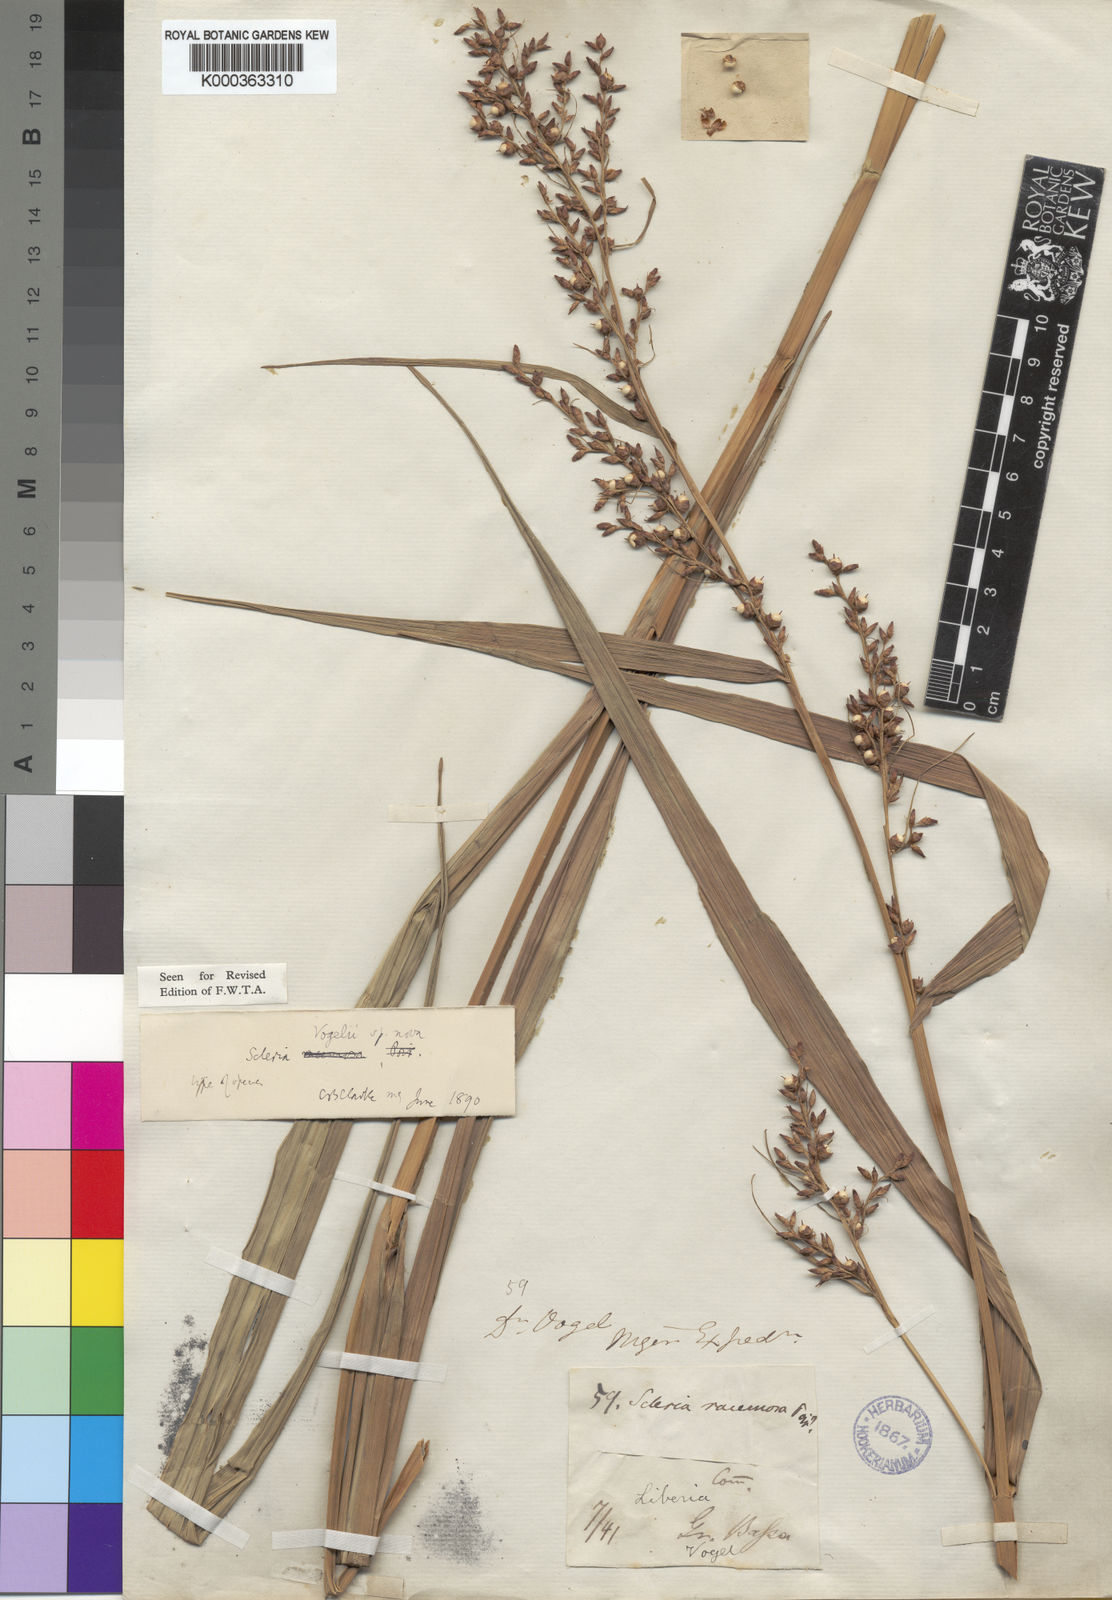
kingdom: Plantae
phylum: Tracheophyta
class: Liliopsida
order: Poales
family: Cyperaceae
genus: Scleria
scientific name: Scleria vogelii
